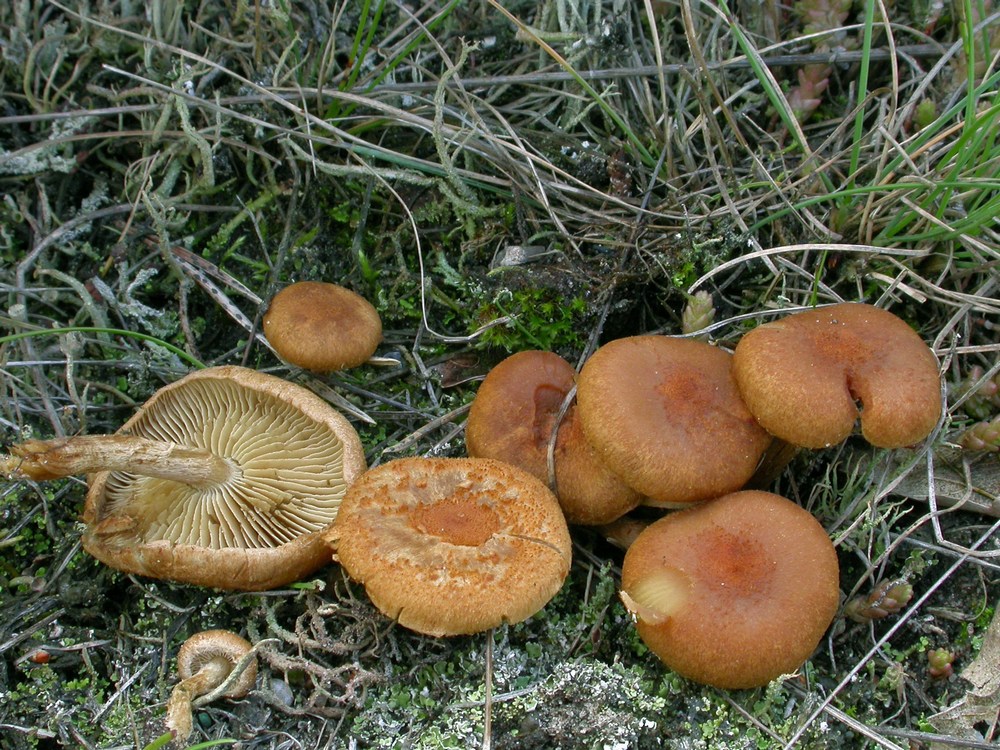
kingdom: Fungi
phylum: Basidiomycota
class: Agaricomycetes
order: Agaricales
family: Inocybaceae
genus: Inocybe
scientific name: Inocybe dulcamara
